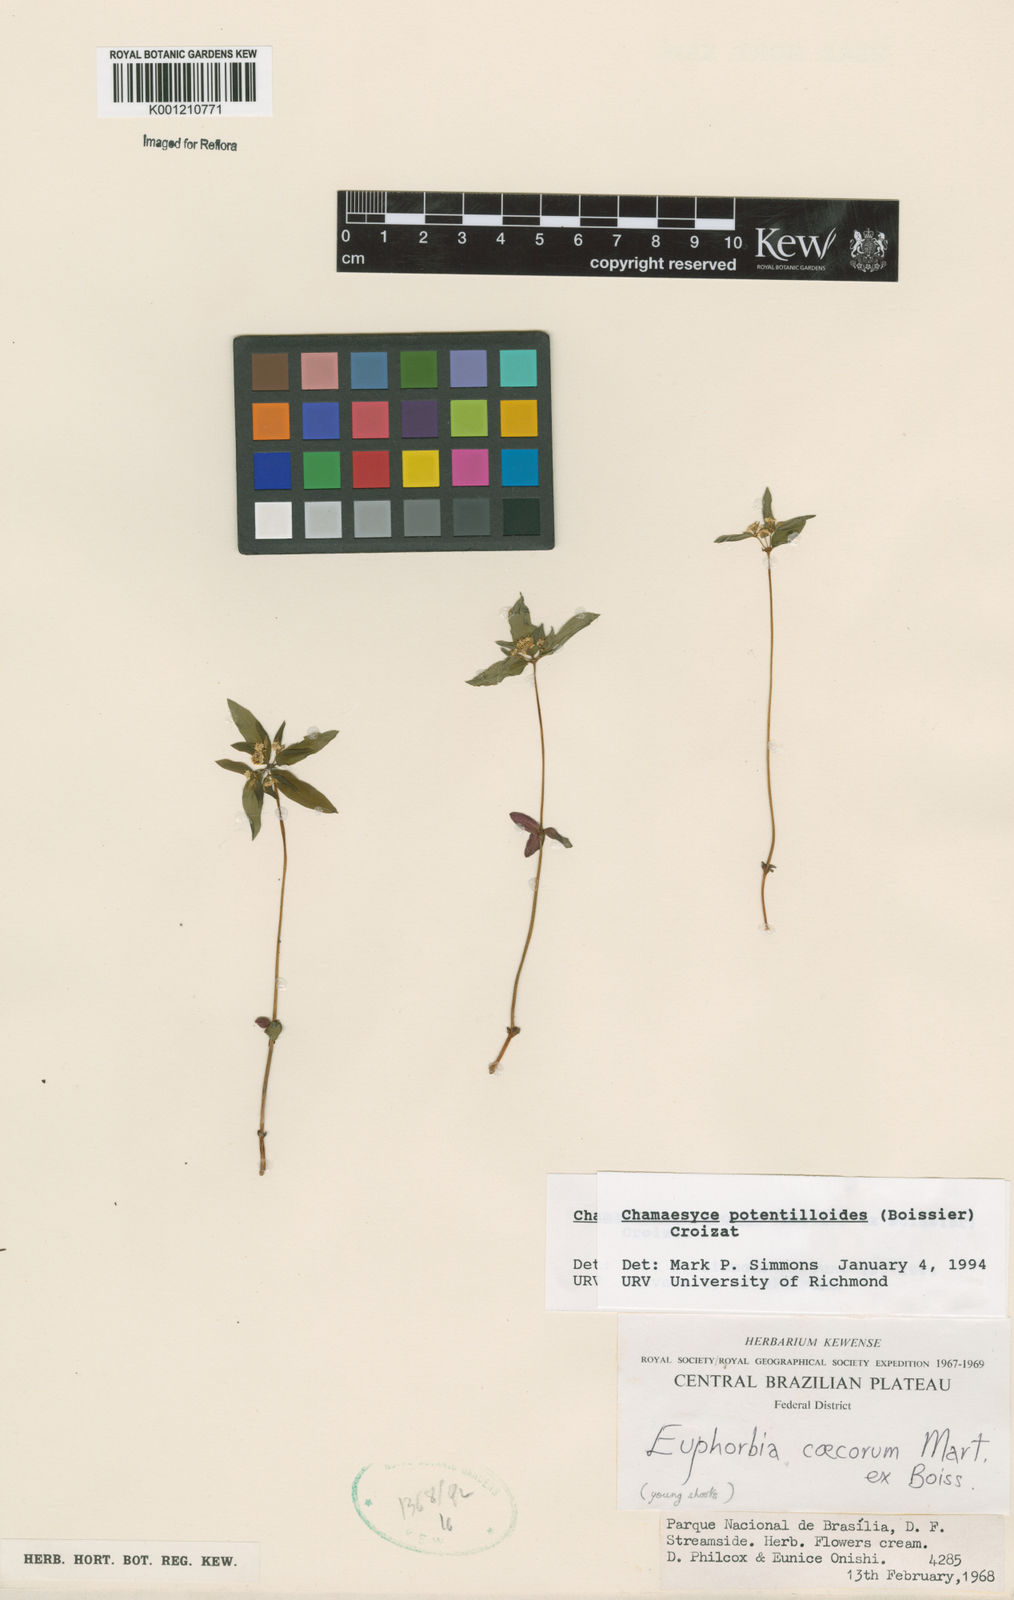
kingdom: Plantae
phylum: Tracheophyta
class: Magnoliopsida
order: Malpighiales
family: Euphorbiaceae
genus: Euphorbia
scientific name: Euphorbia potentilloides
